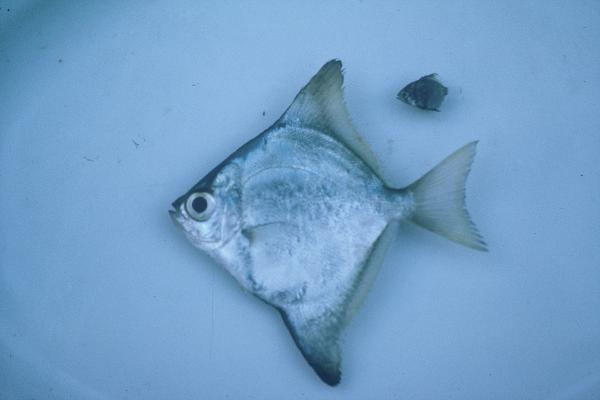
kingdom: Animalia
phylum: Chordata
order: Perciformes
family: Monodactylidae
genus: Monodactylus
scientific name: Monodactylus argenteus
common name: Silver moony
